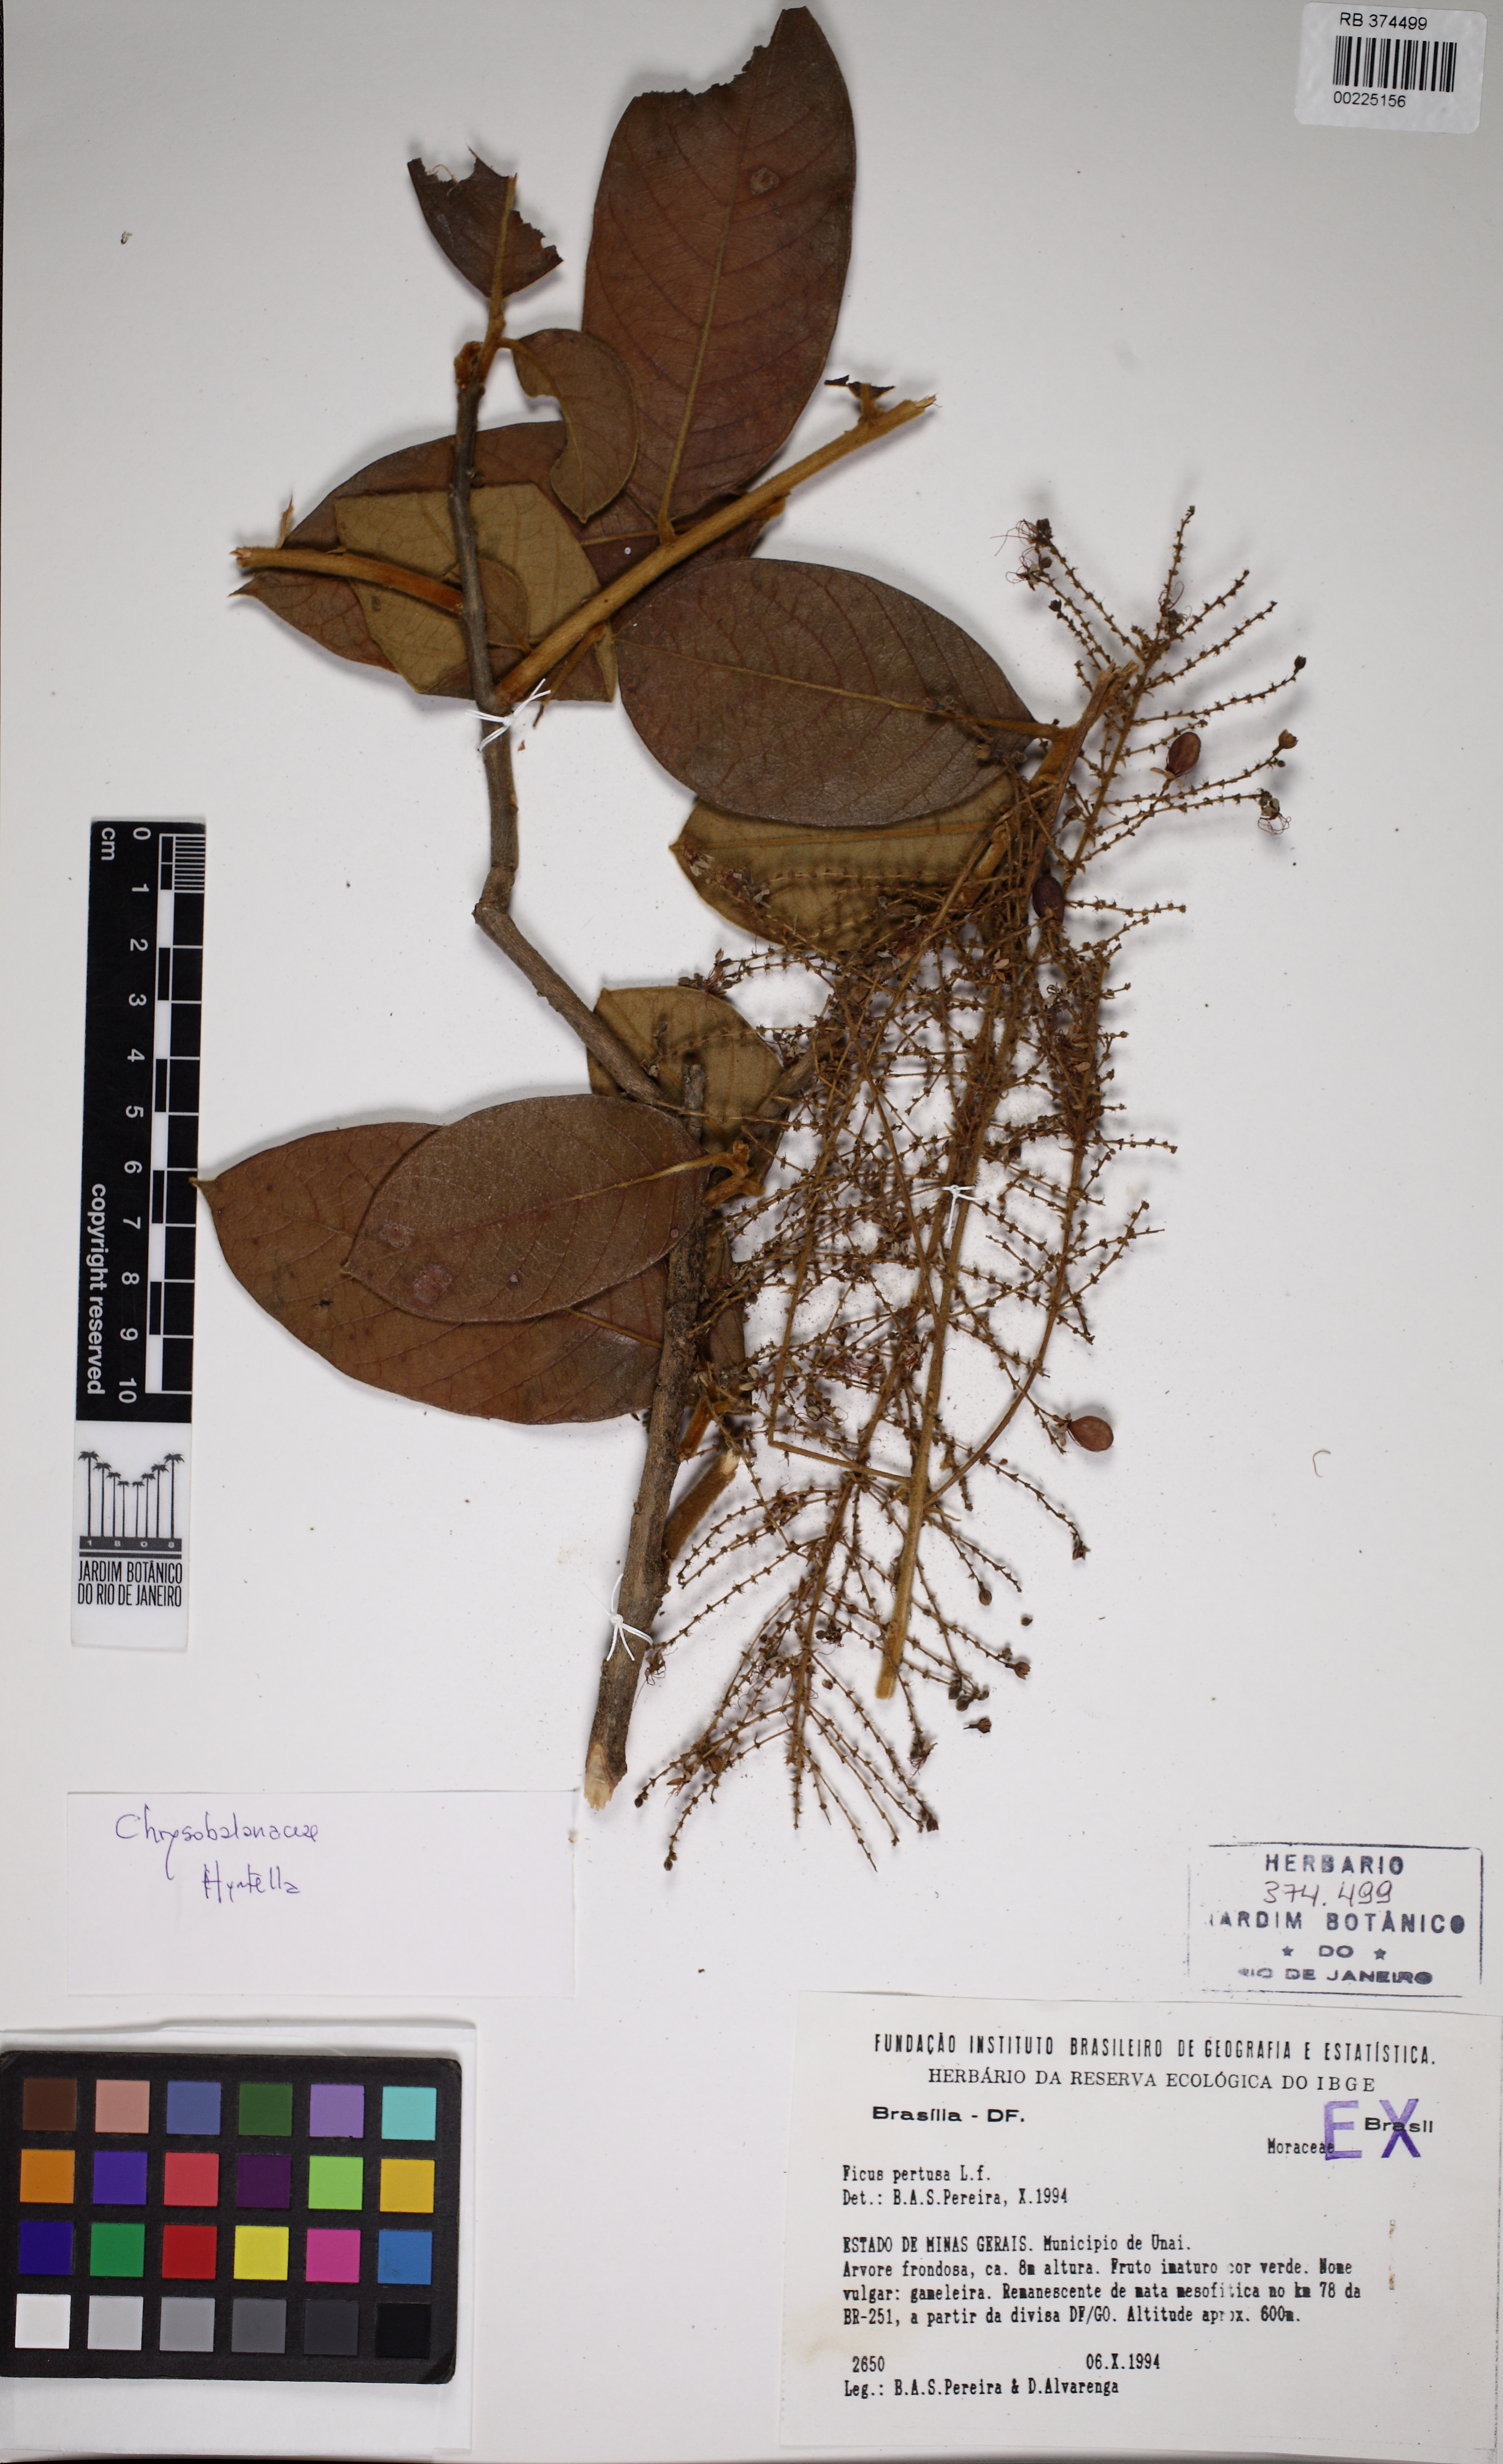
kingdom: Plantae
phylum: Tracheophyta
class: Magnoliopsida
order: Malpighiales
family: Chrysobalanaceae
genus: Hirtella
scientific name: Hirtella glandulosa
